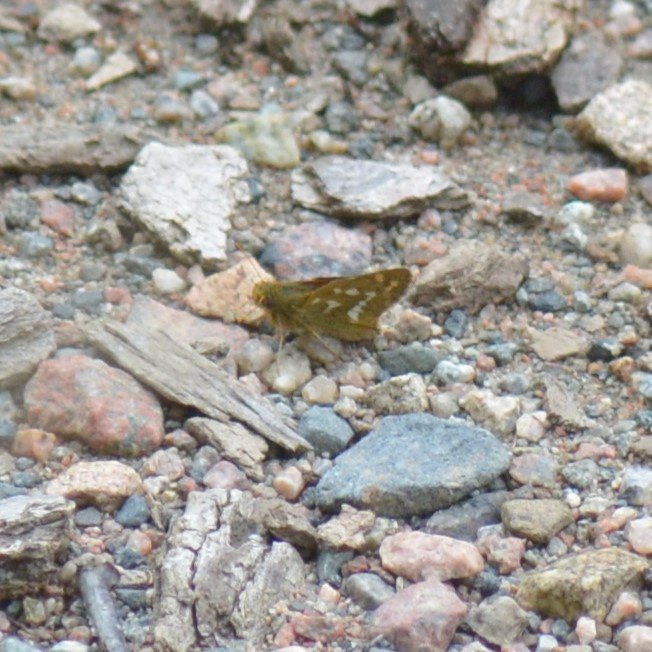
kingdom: Animalia
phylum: Arthropoda
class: Insecta
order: Lepidoptera
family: Hesperiidae
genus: Hesperia
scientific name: Hesperia comma
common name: Common Branded Skipper
